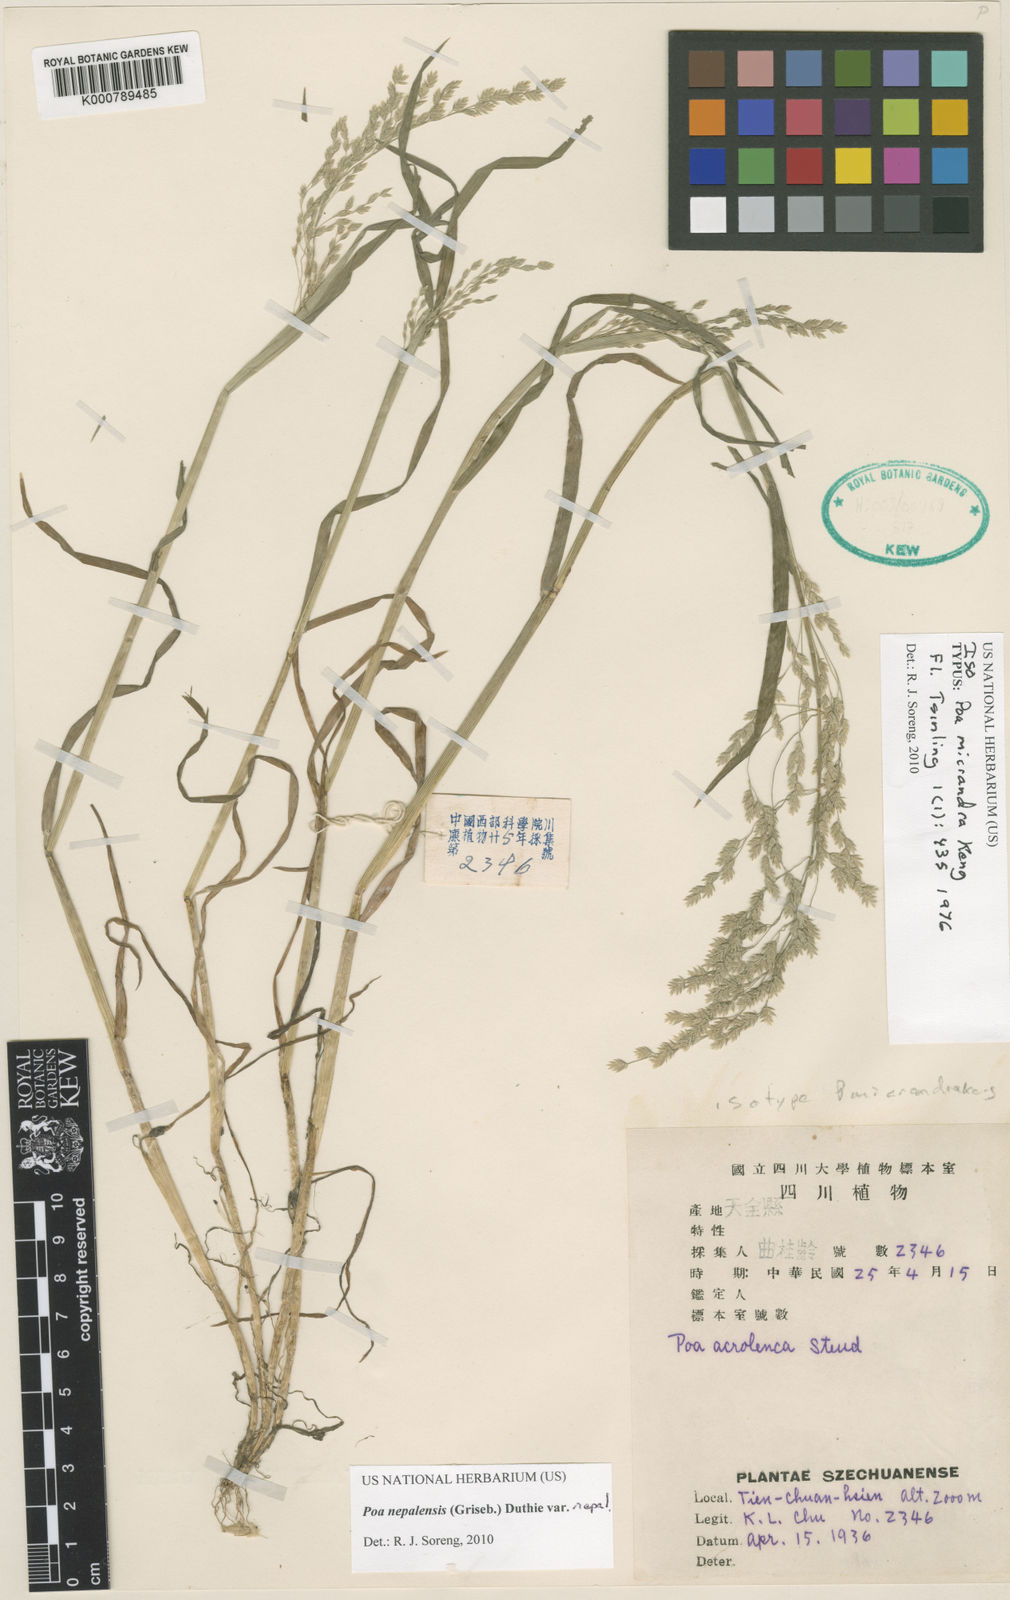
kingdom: Plantae
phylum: Tracheophyta
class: Liliopsida
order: Poales
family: Poaceae
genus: Poa
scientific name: Poa nepalensis
